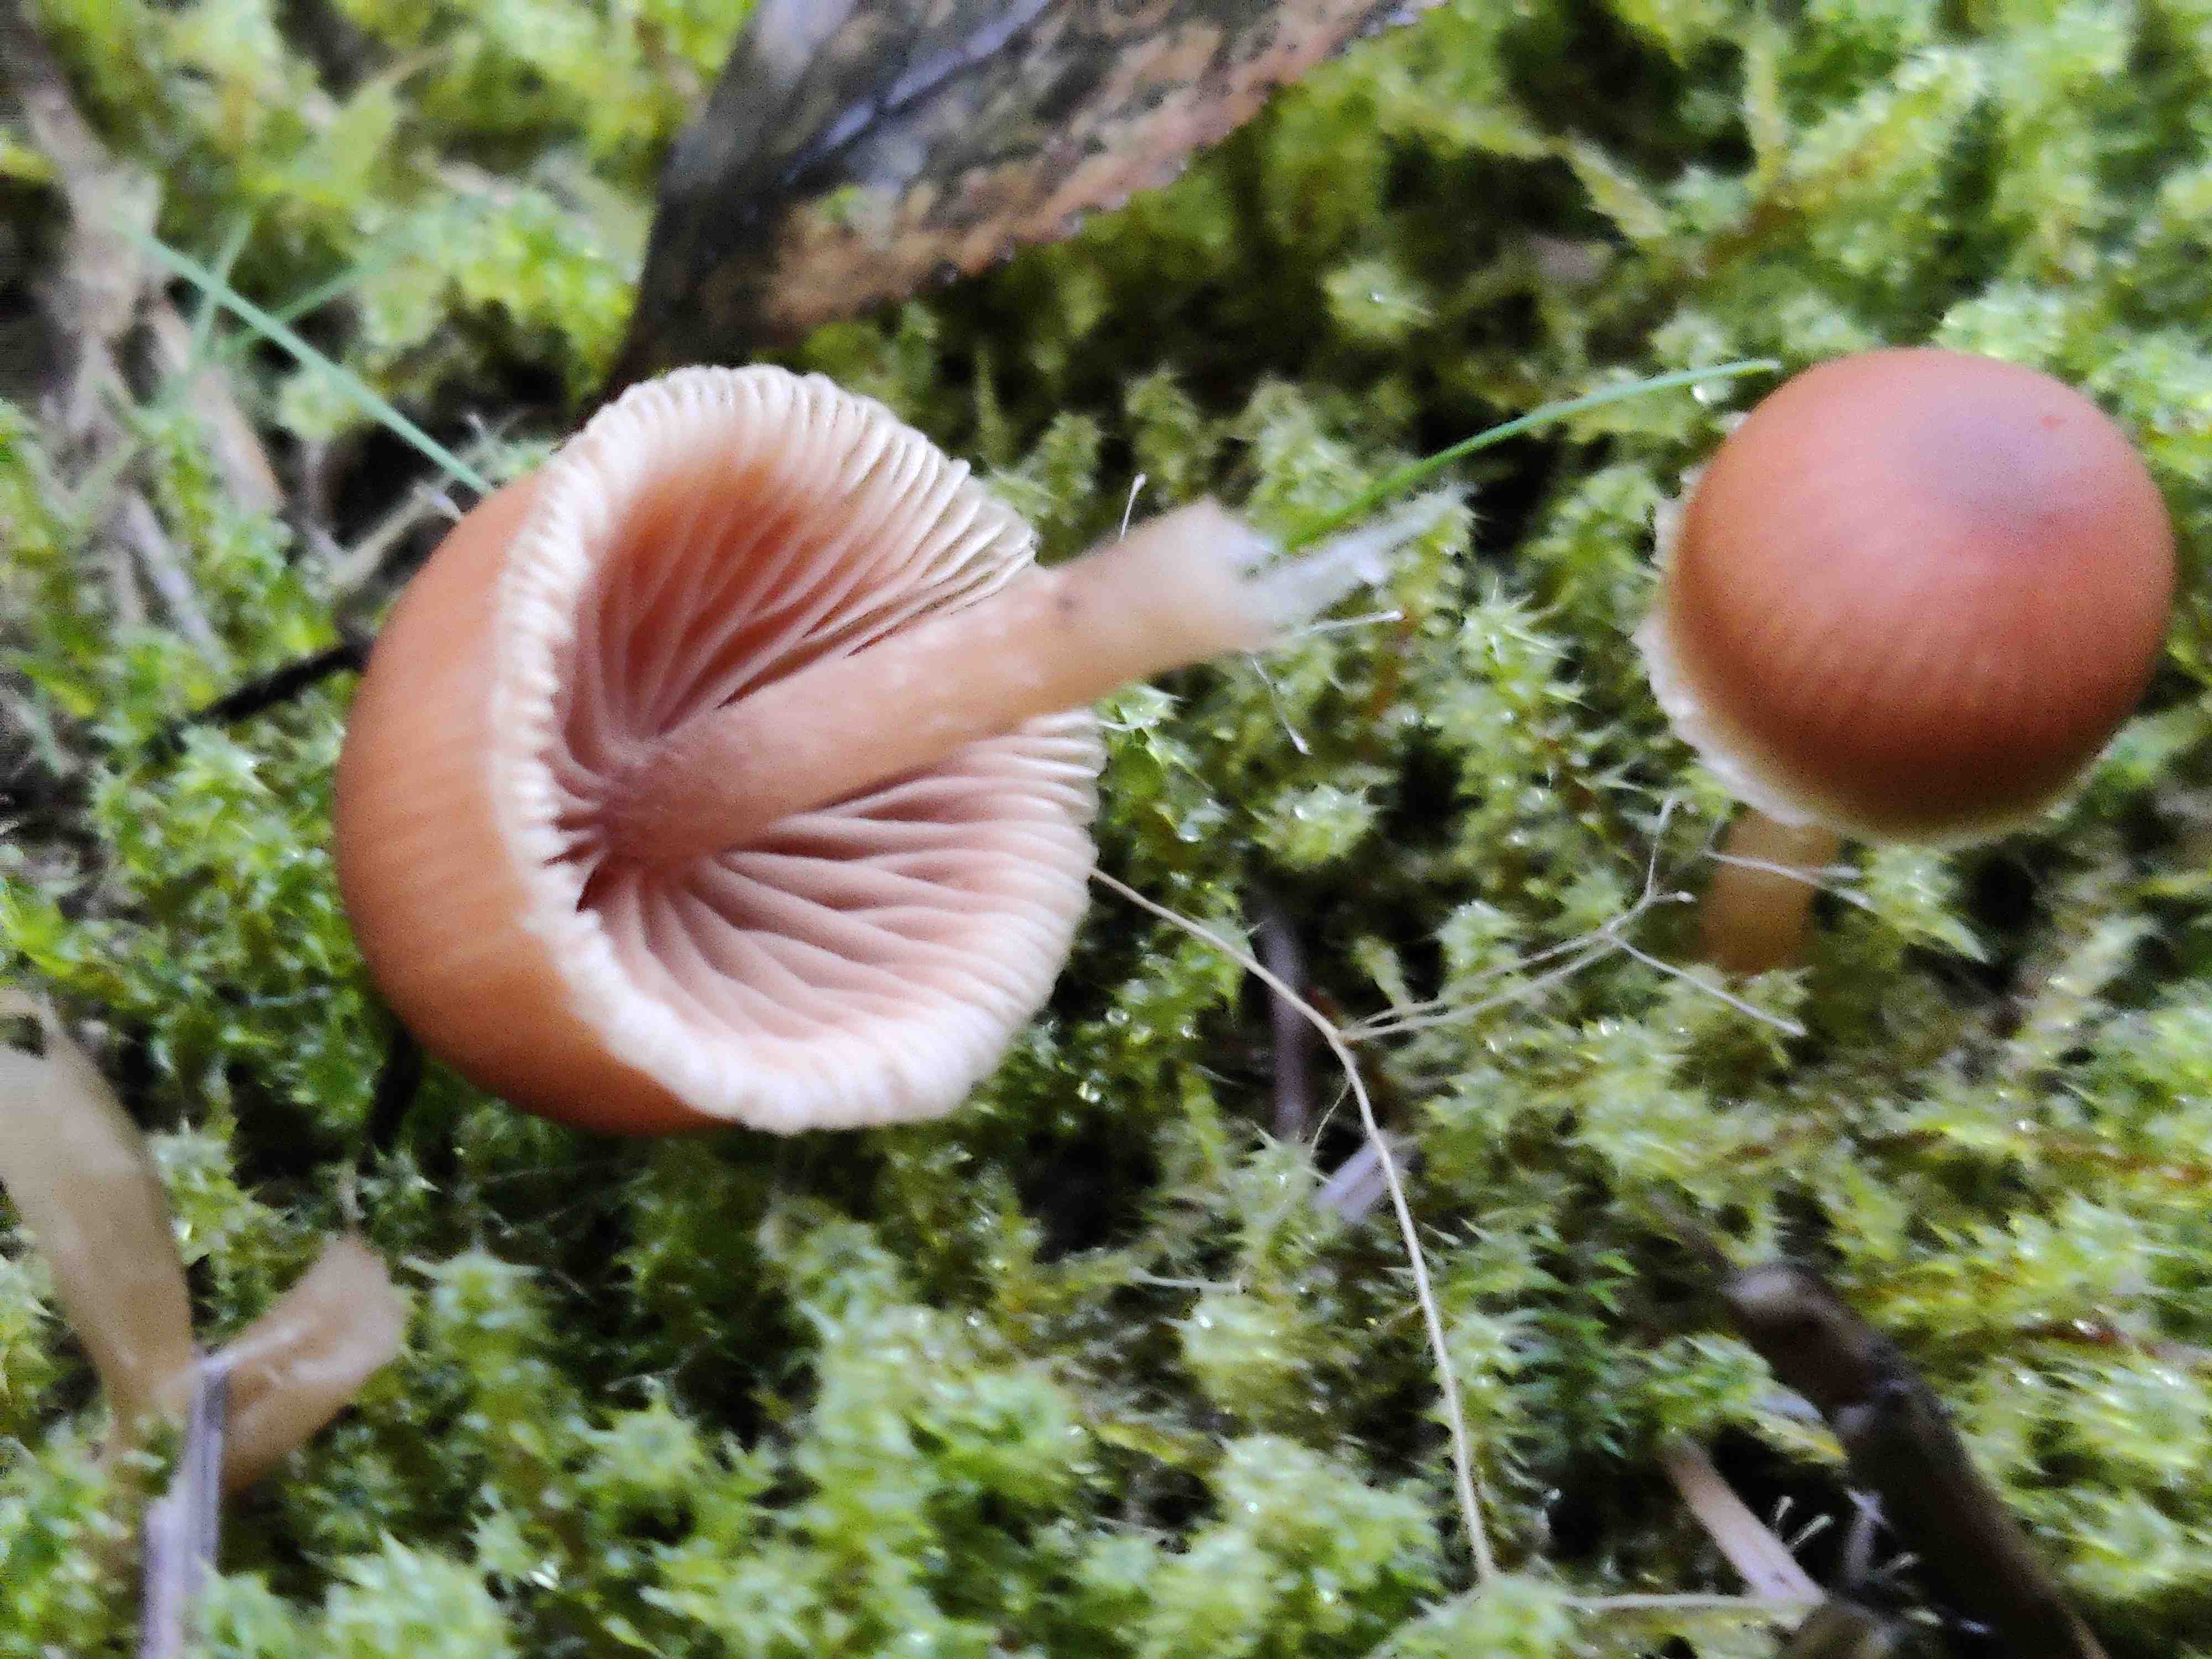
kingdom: Fungi
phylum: Basidiomycota
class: Agaricomycetes
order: Agaricales
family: Tubariaceae
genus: Tubaria
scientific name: Tubaria furfuracea
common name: kliddet fnughat
